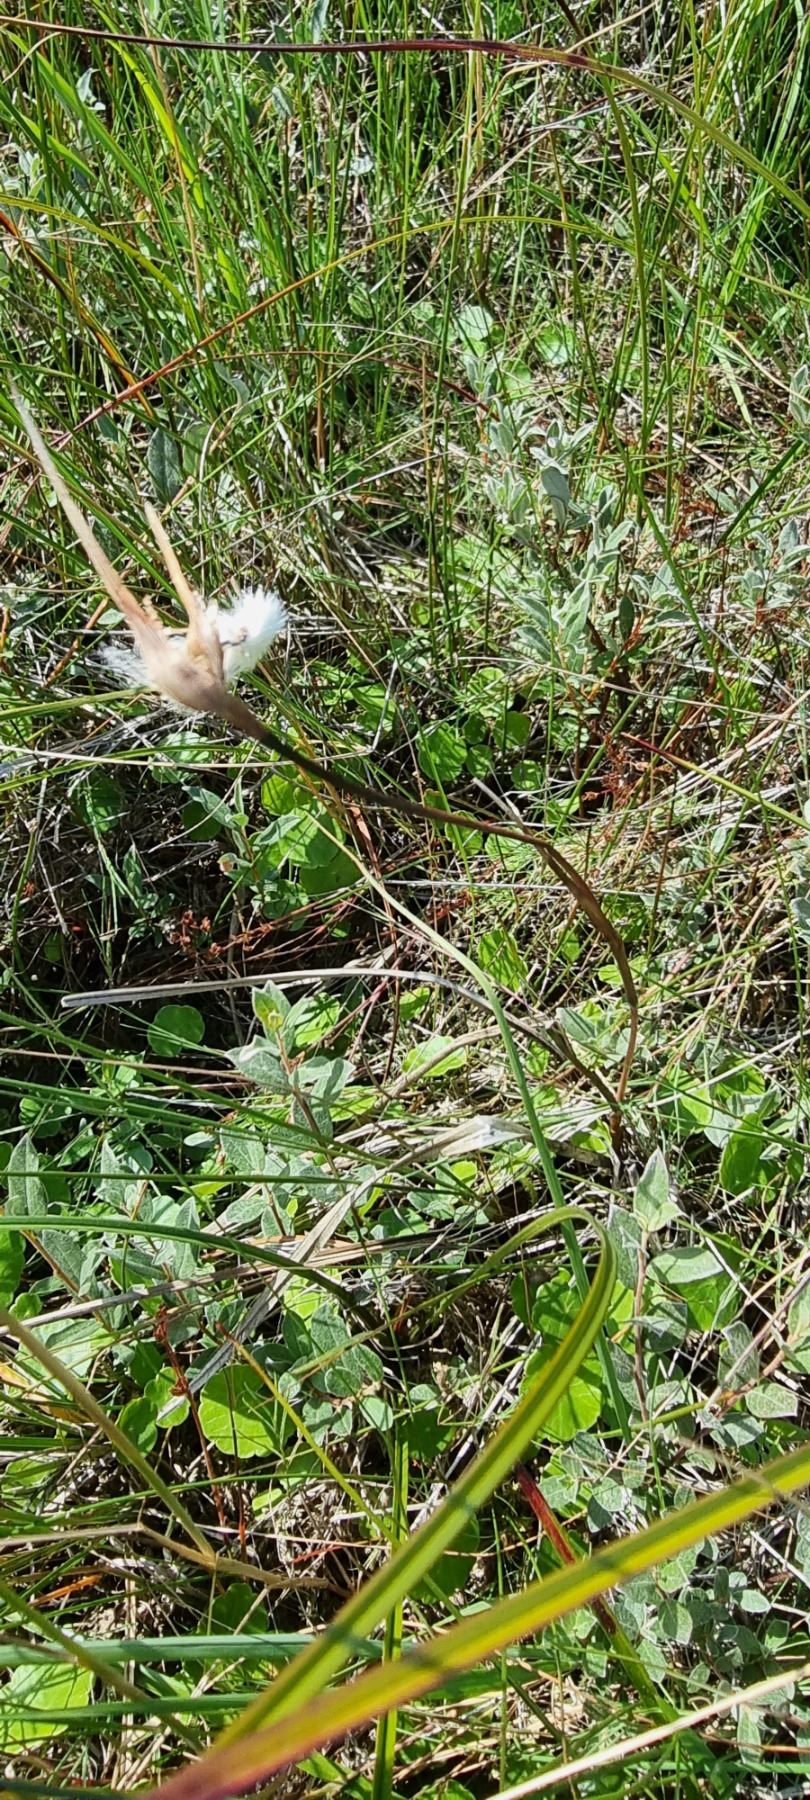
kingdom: Plantae
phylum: Tracheophyta
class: Liliopsida
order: Poales
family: Cyperaceae
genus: Eriophorum
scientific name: Eriophorum angustifolium
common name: Smalbladet kæruld
